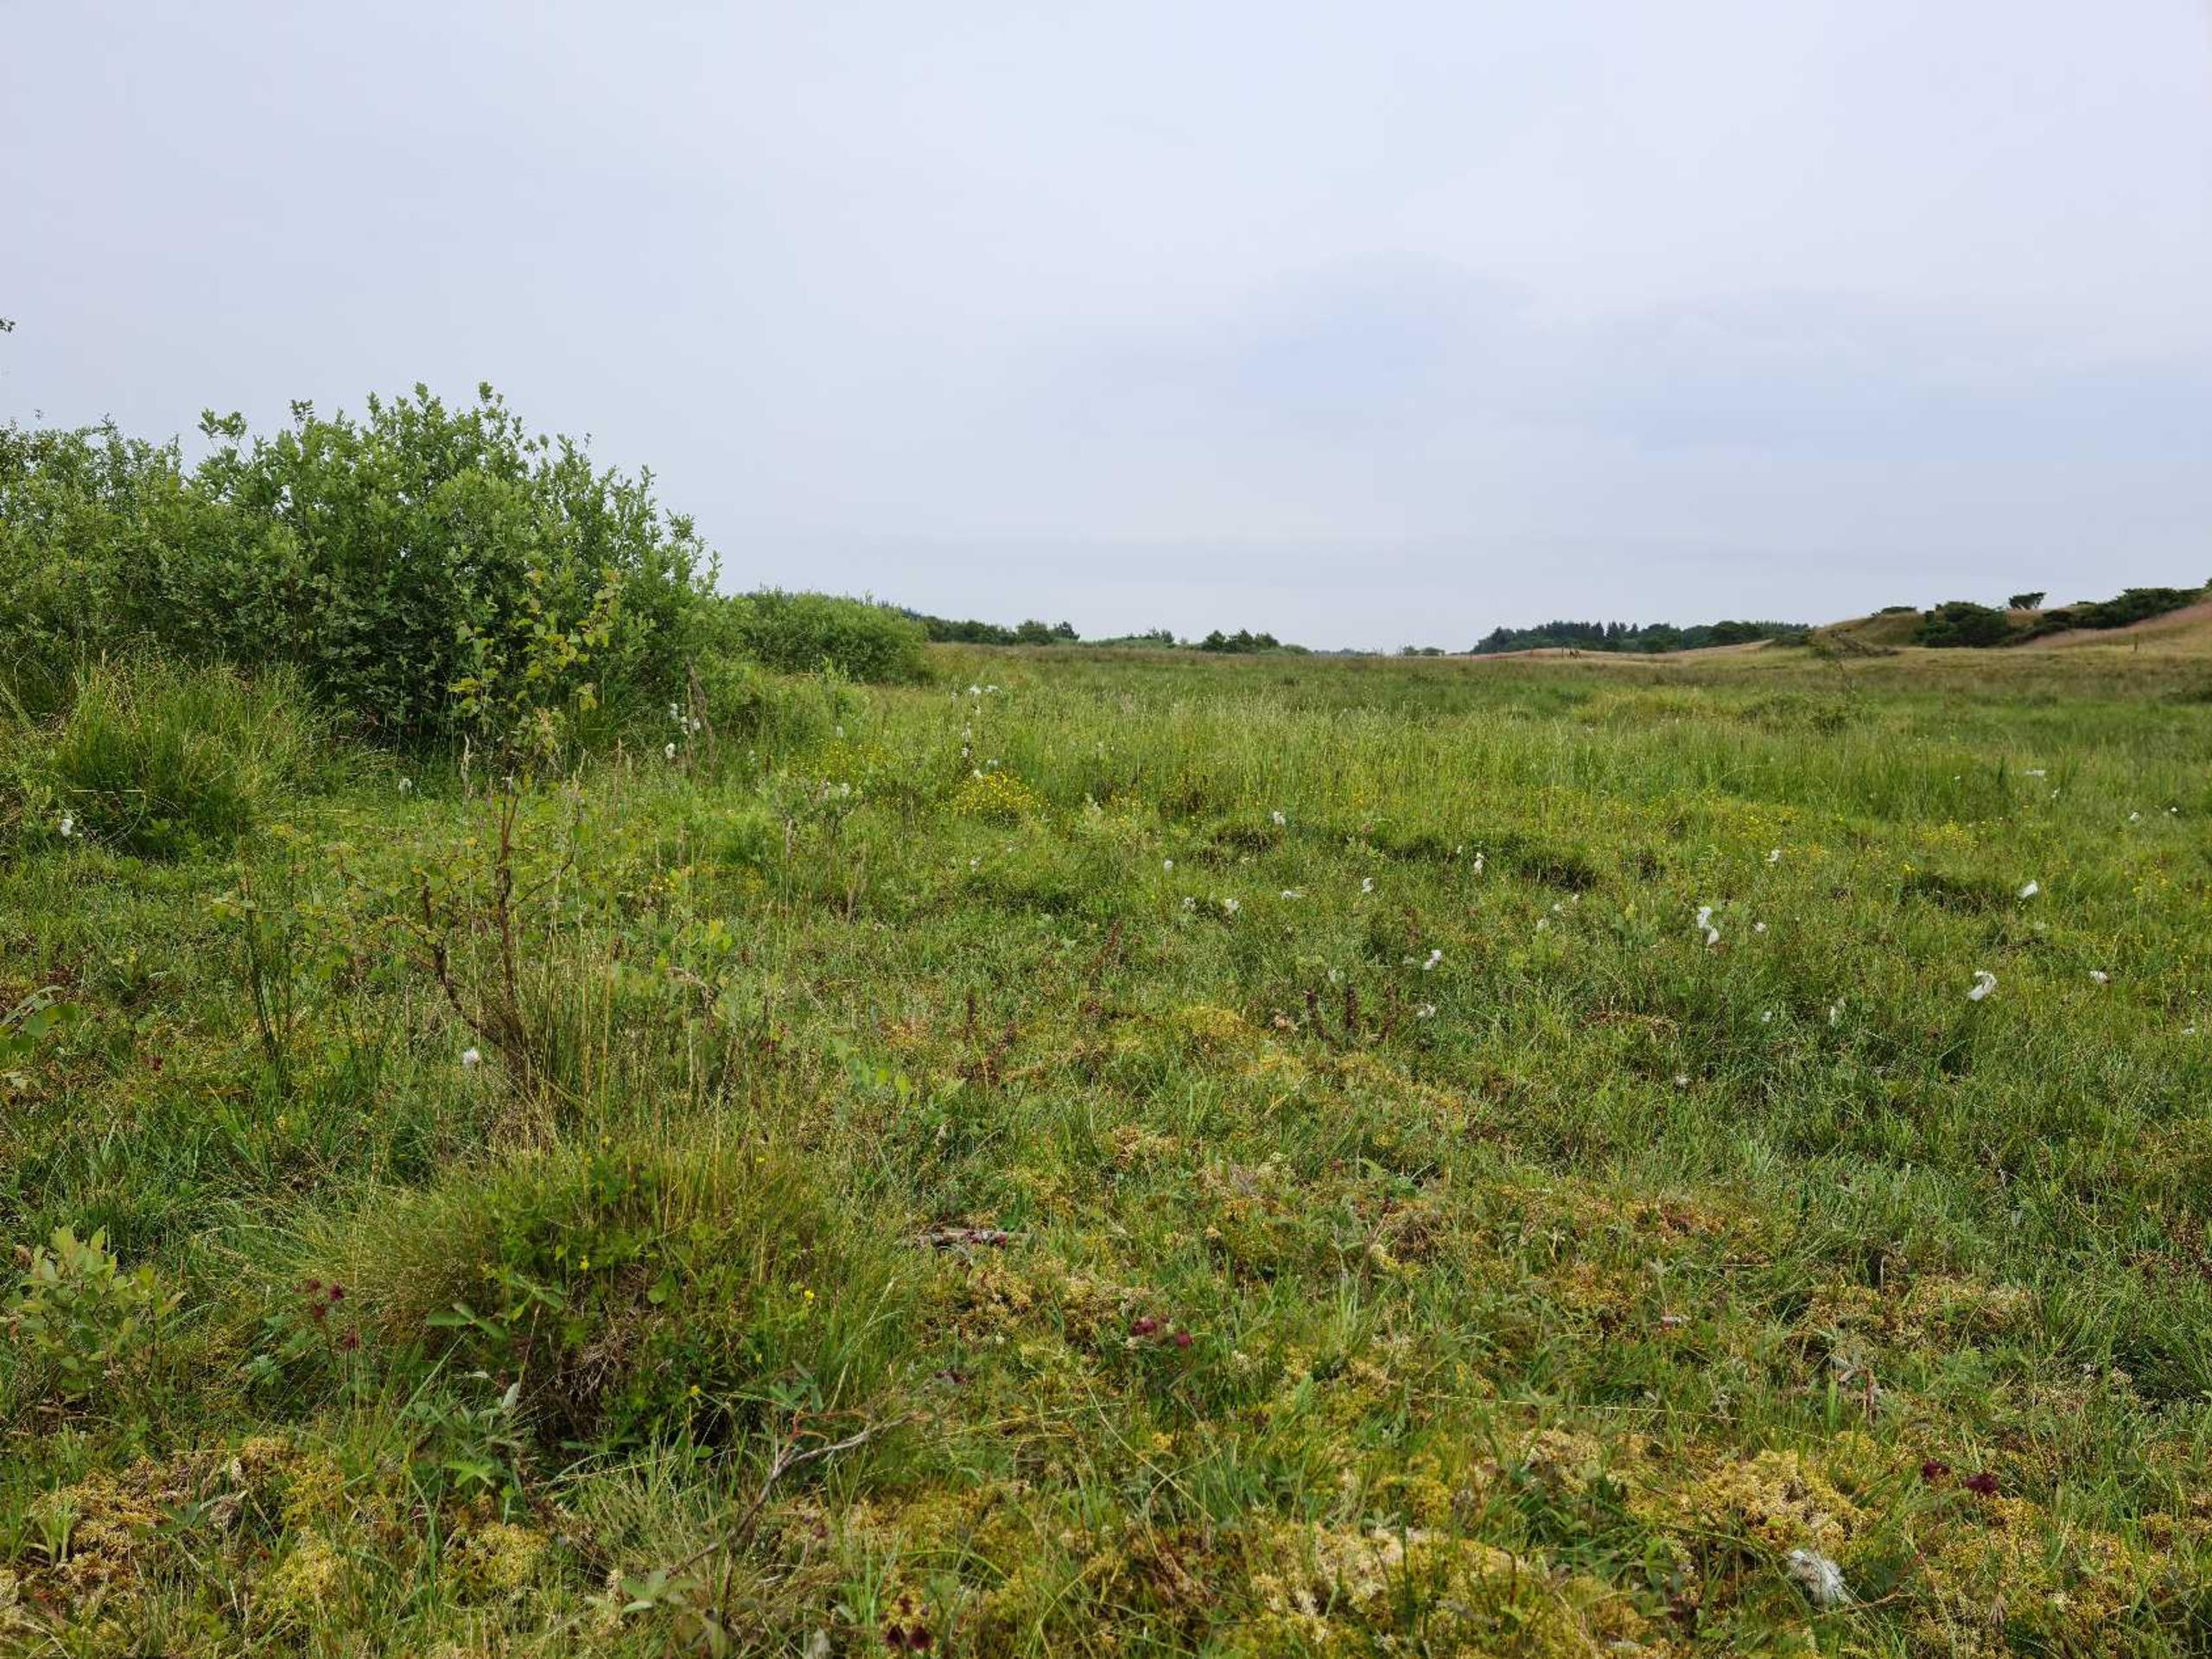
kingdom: Plantae
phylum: Tracheophyta
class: Magnoliopsida
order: Lamiales
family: Orobanchaceae
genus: Pedicularis
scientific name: Pedicularis palustris
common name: Eng-troldurt
